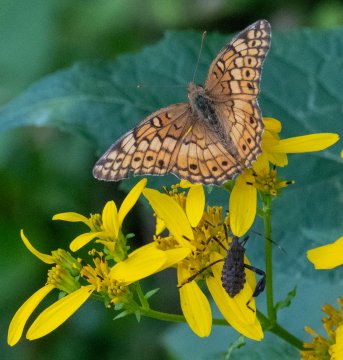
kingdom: Animalia
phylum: Arthropoda
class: Insecta
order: Lepidoptera
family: Nymphalidae
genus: Euptoieta
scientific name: Euptoieta claudia
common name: Variegated Fritillary
